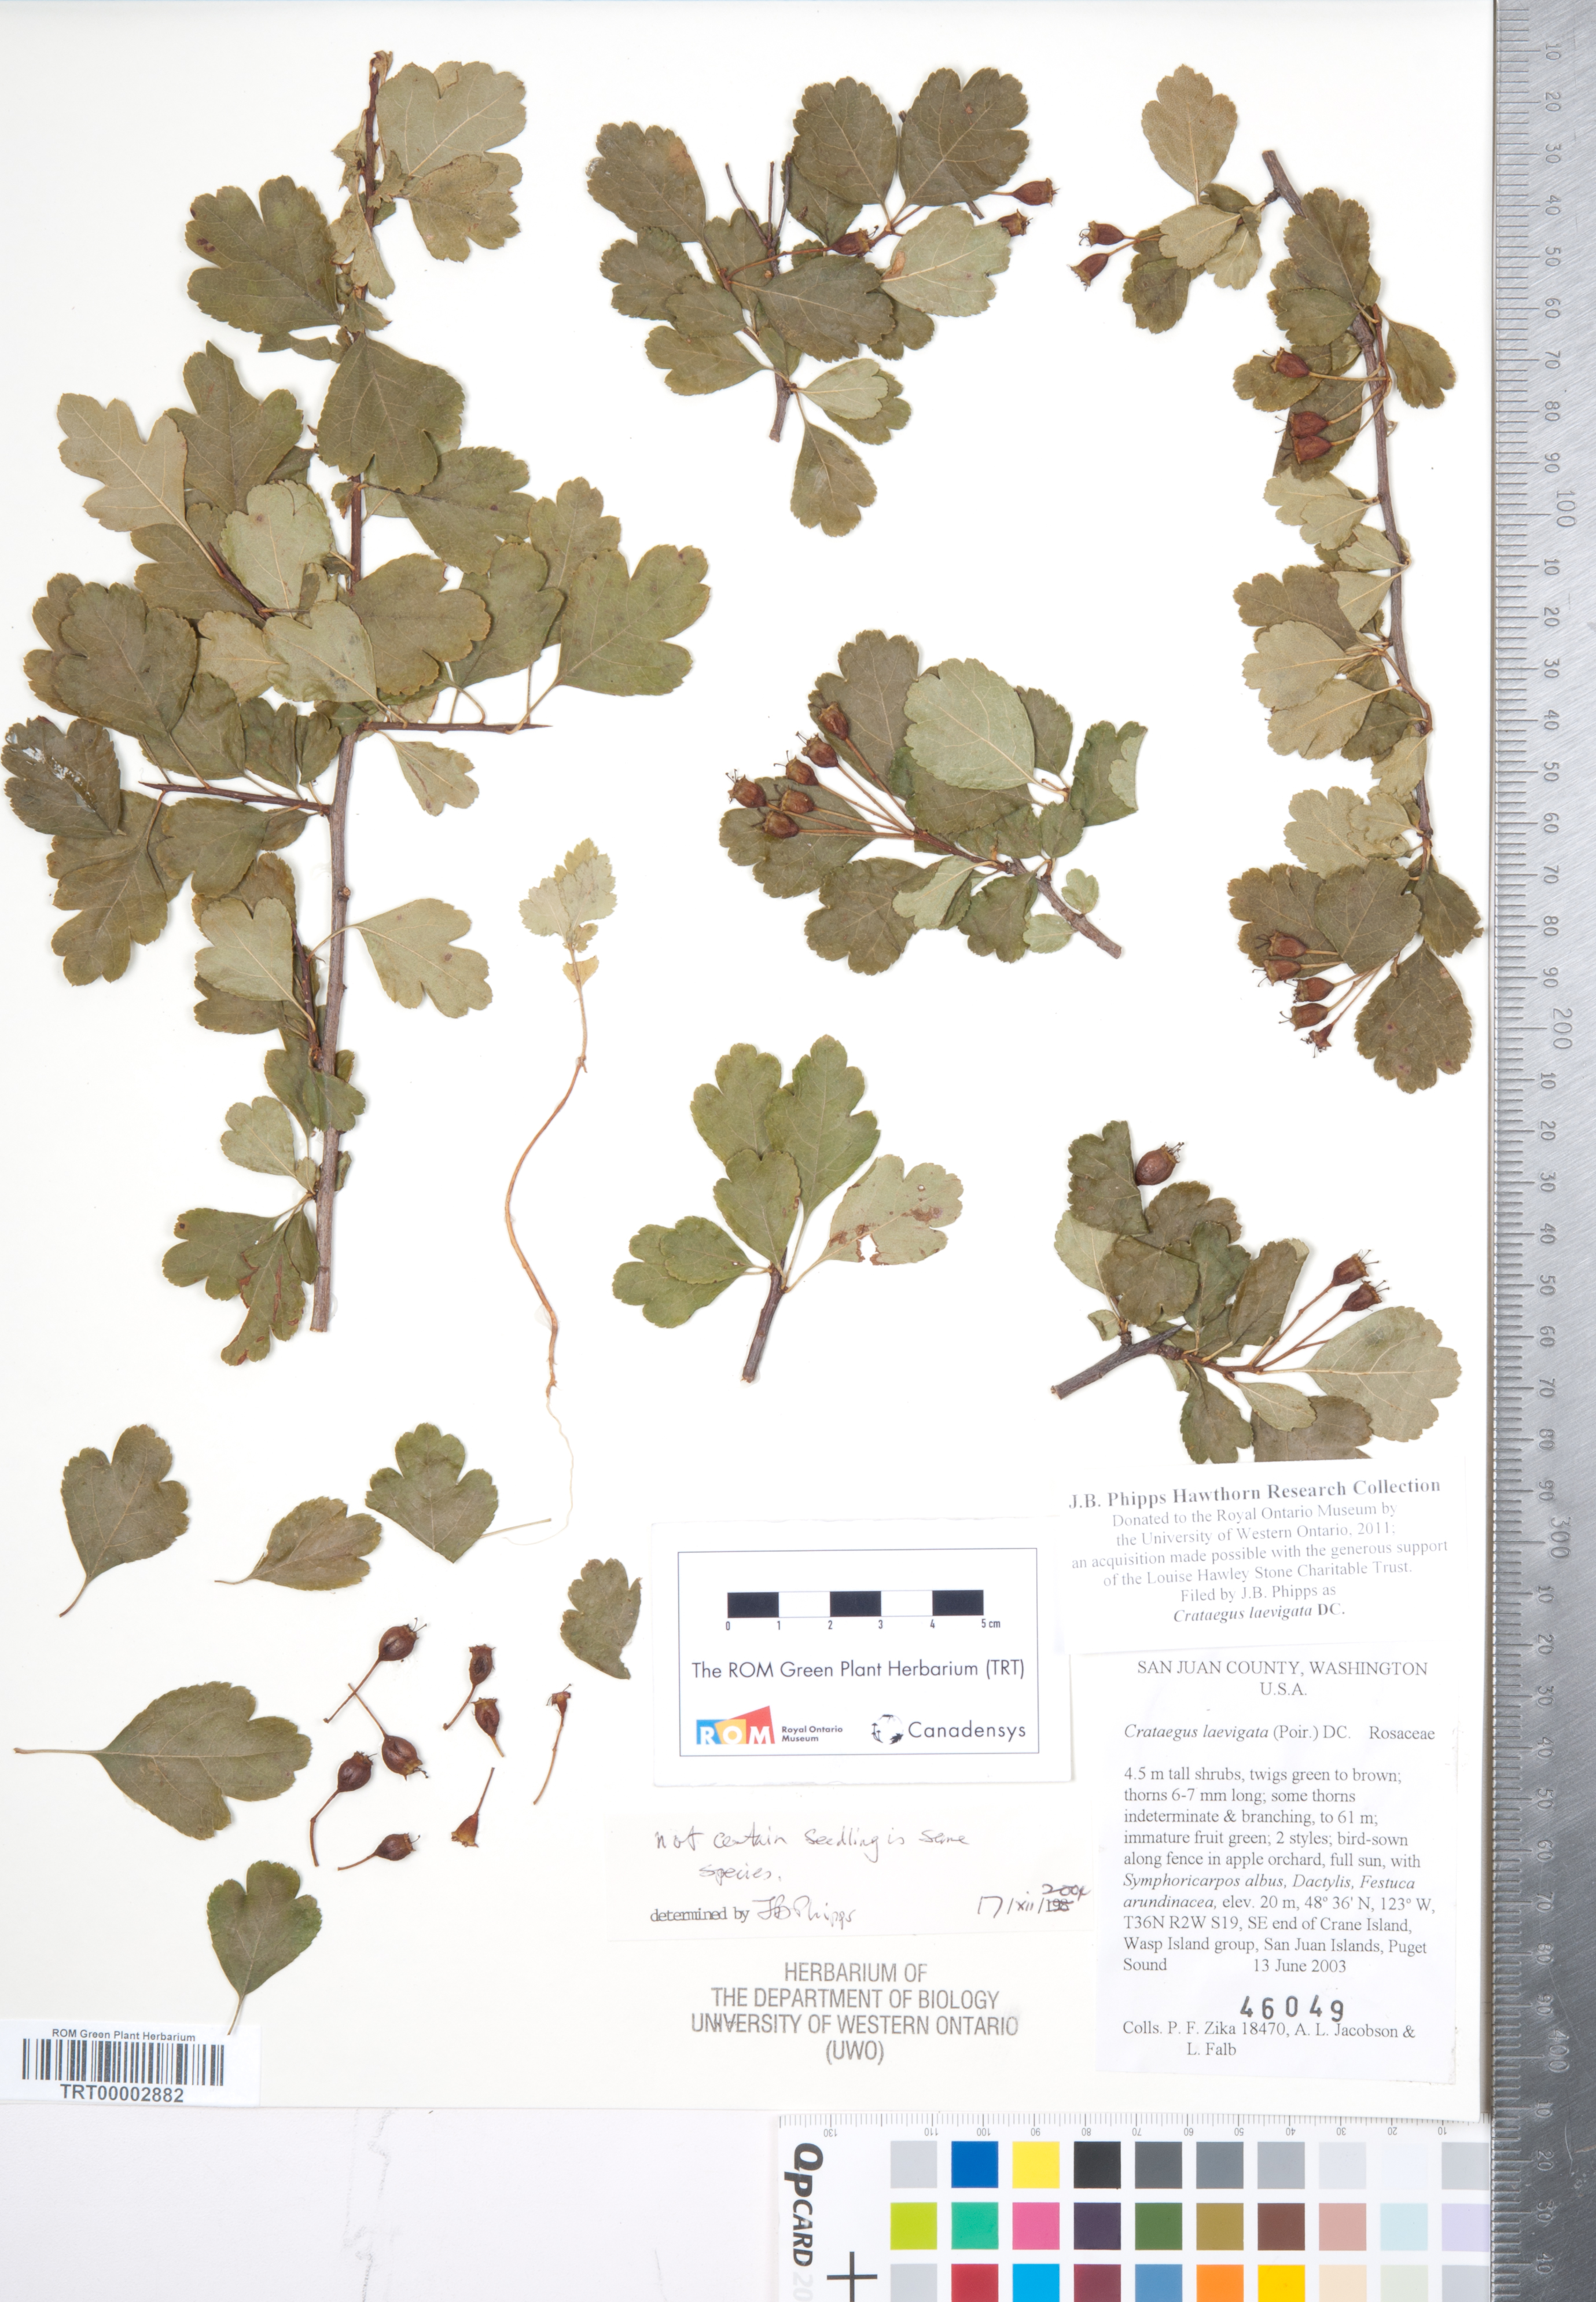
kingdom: Plantae
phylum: Tracheophyta
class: Magnoliopsida
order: Rosales
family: Rosaceae
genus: Crataegus
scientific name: Crataegus laevigata
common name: Midland hawthorn
